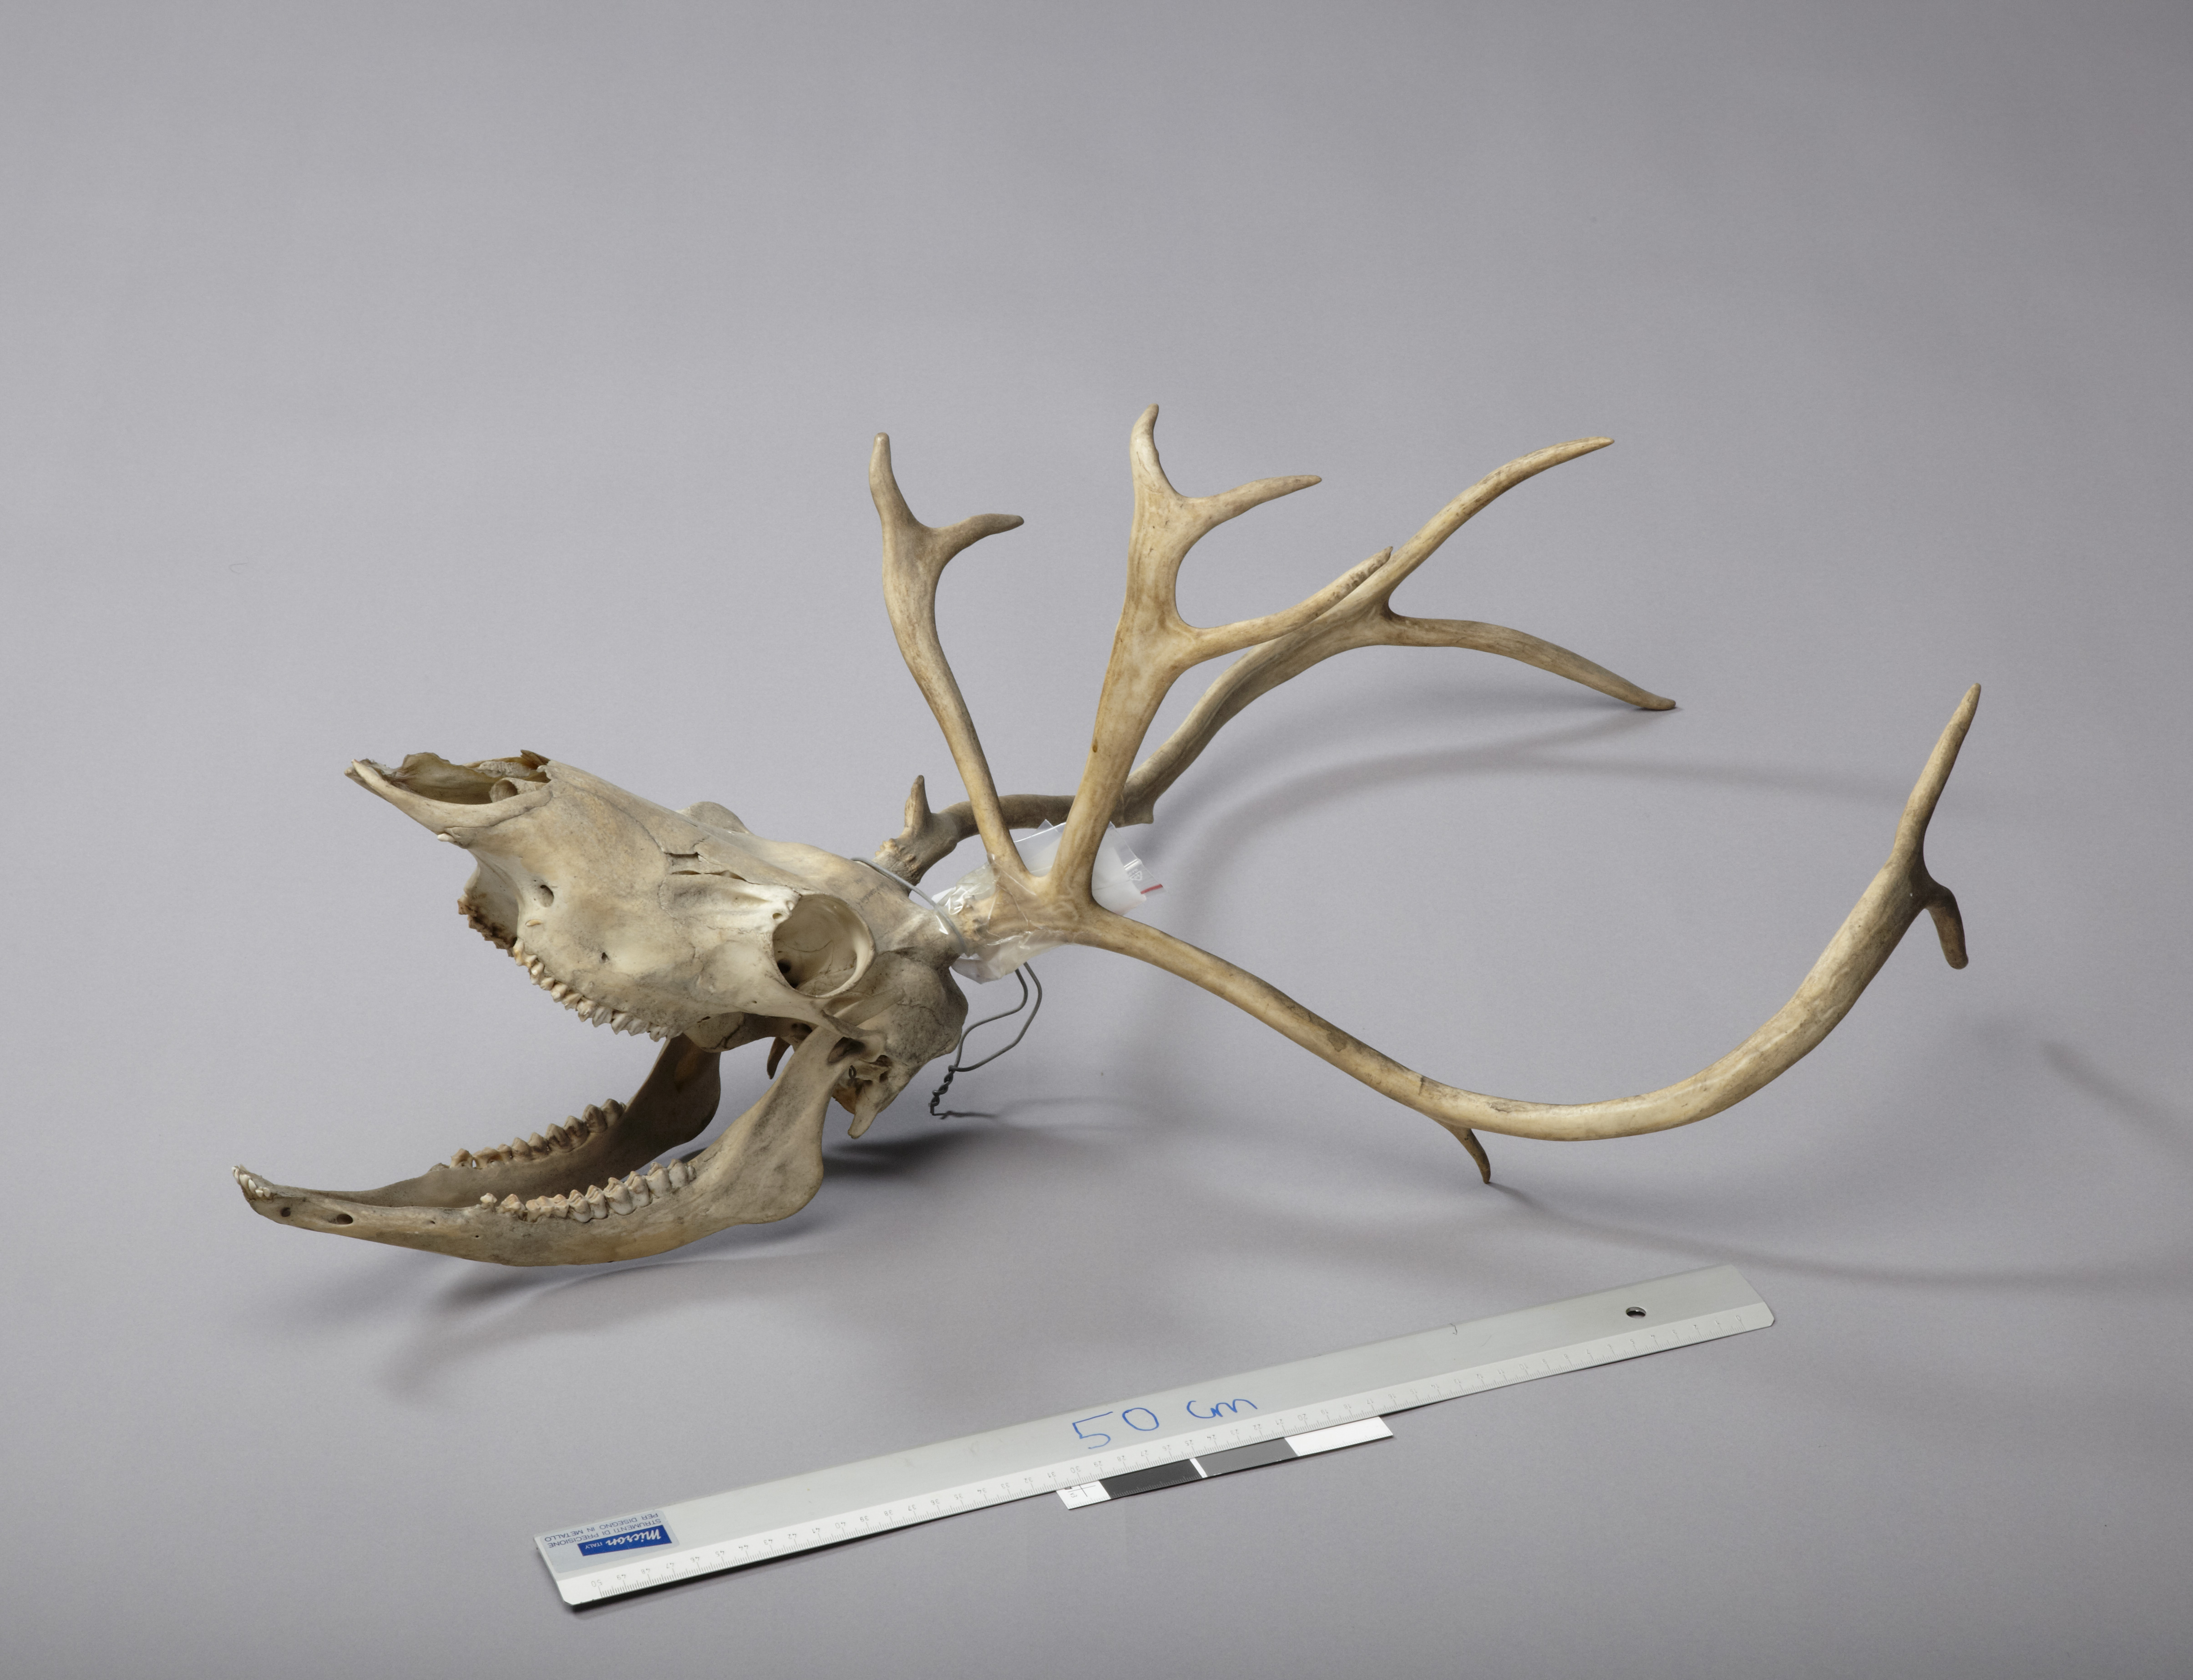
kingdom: Animalia
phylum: Chordata
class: Mammalia
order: Artiodactyla
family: Cervidae
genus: Rangifer
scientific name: Rangifer tarandus
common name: Reindeer
